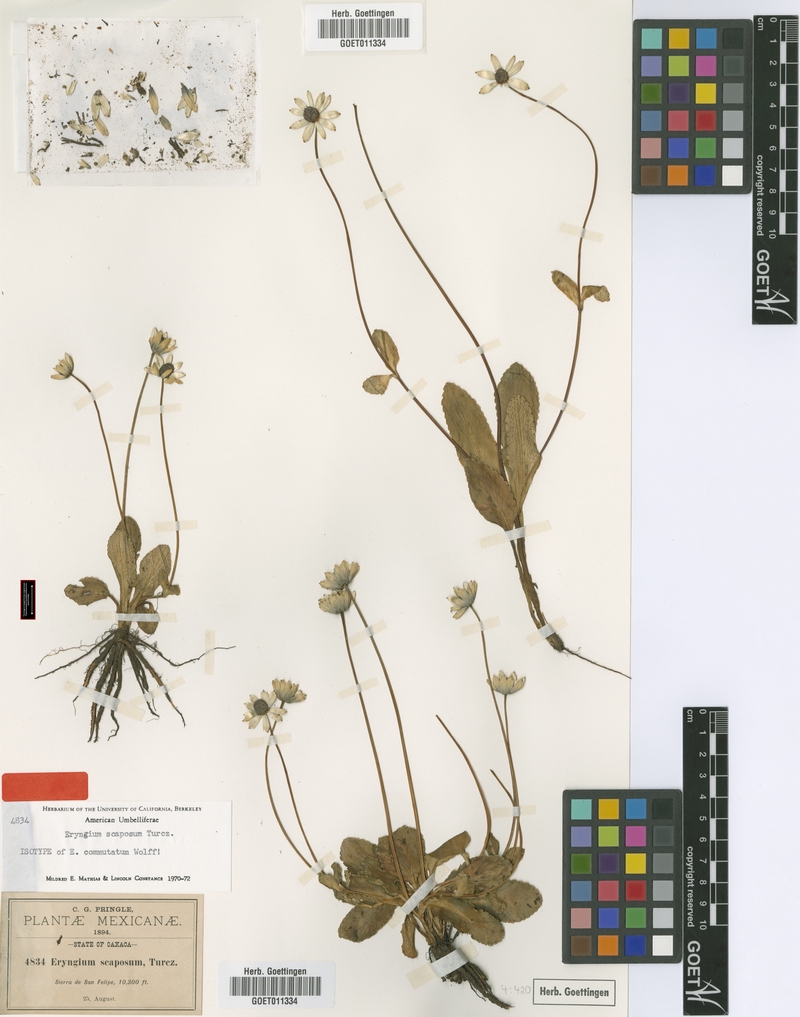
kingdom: Plantae
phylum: Tracheophyta
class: Magnoliopsida
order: Apiales
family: Apiaceae
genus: Eryngium
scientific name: Eryngium scaposum
